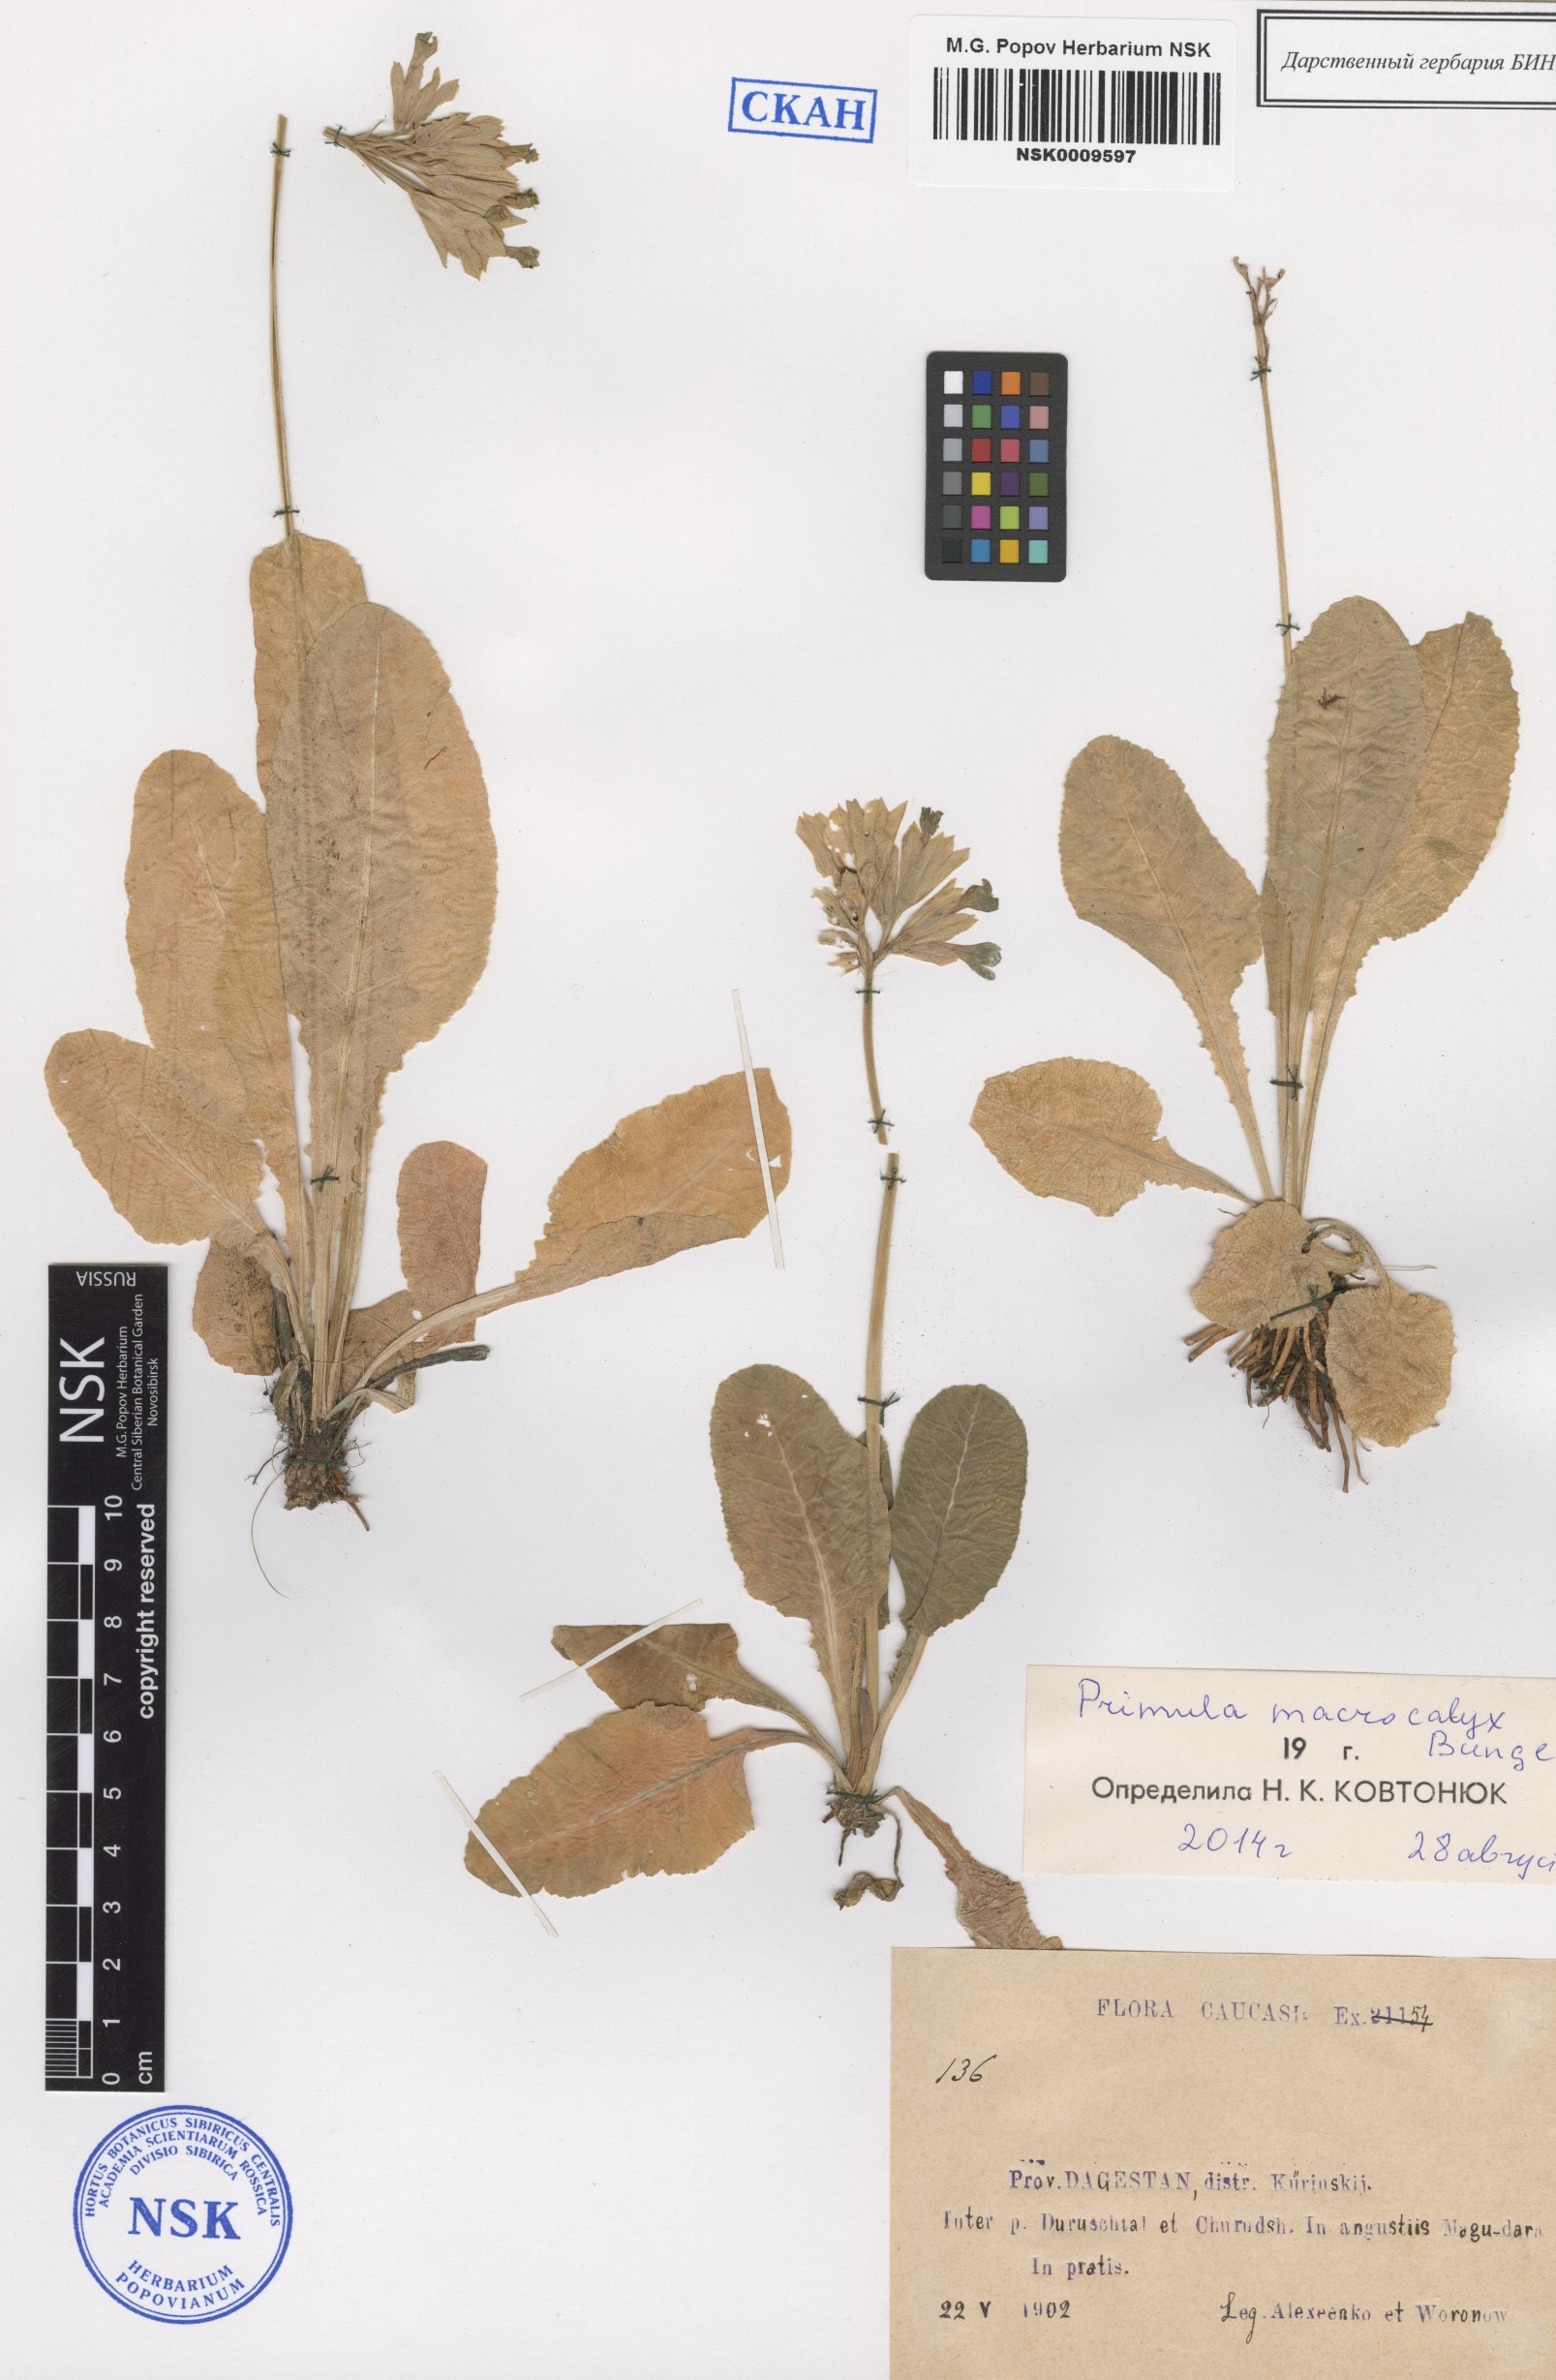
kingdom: Plantae
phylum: Tracheophyta
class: Magnoliopsida
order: Ericales
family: Primulaceae
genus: Primula
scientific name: Primula veris
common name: Cowslip
